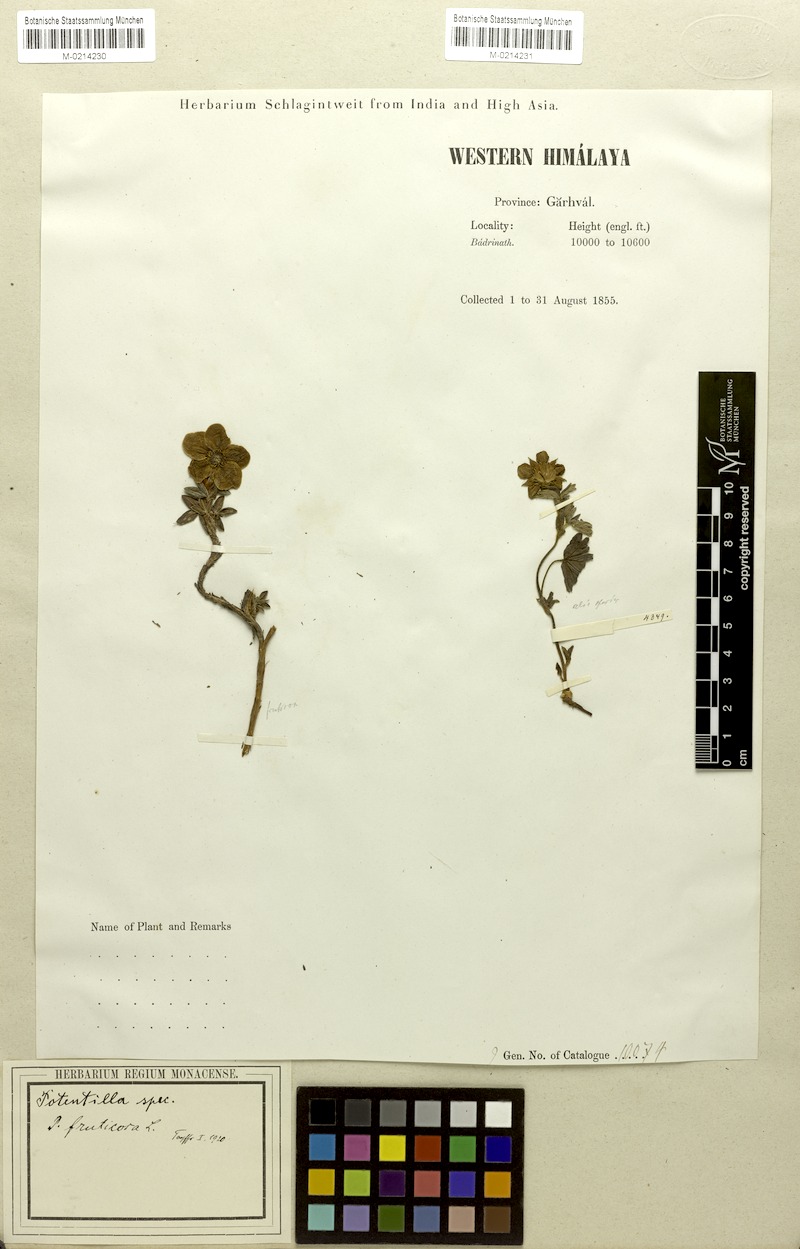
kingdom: Plantae
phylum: Tracheophyta
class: Magnoliopsida
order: Rosales
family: Rosaceae
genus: Sibbaldia
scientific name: Sibbaldia cuneifolia
